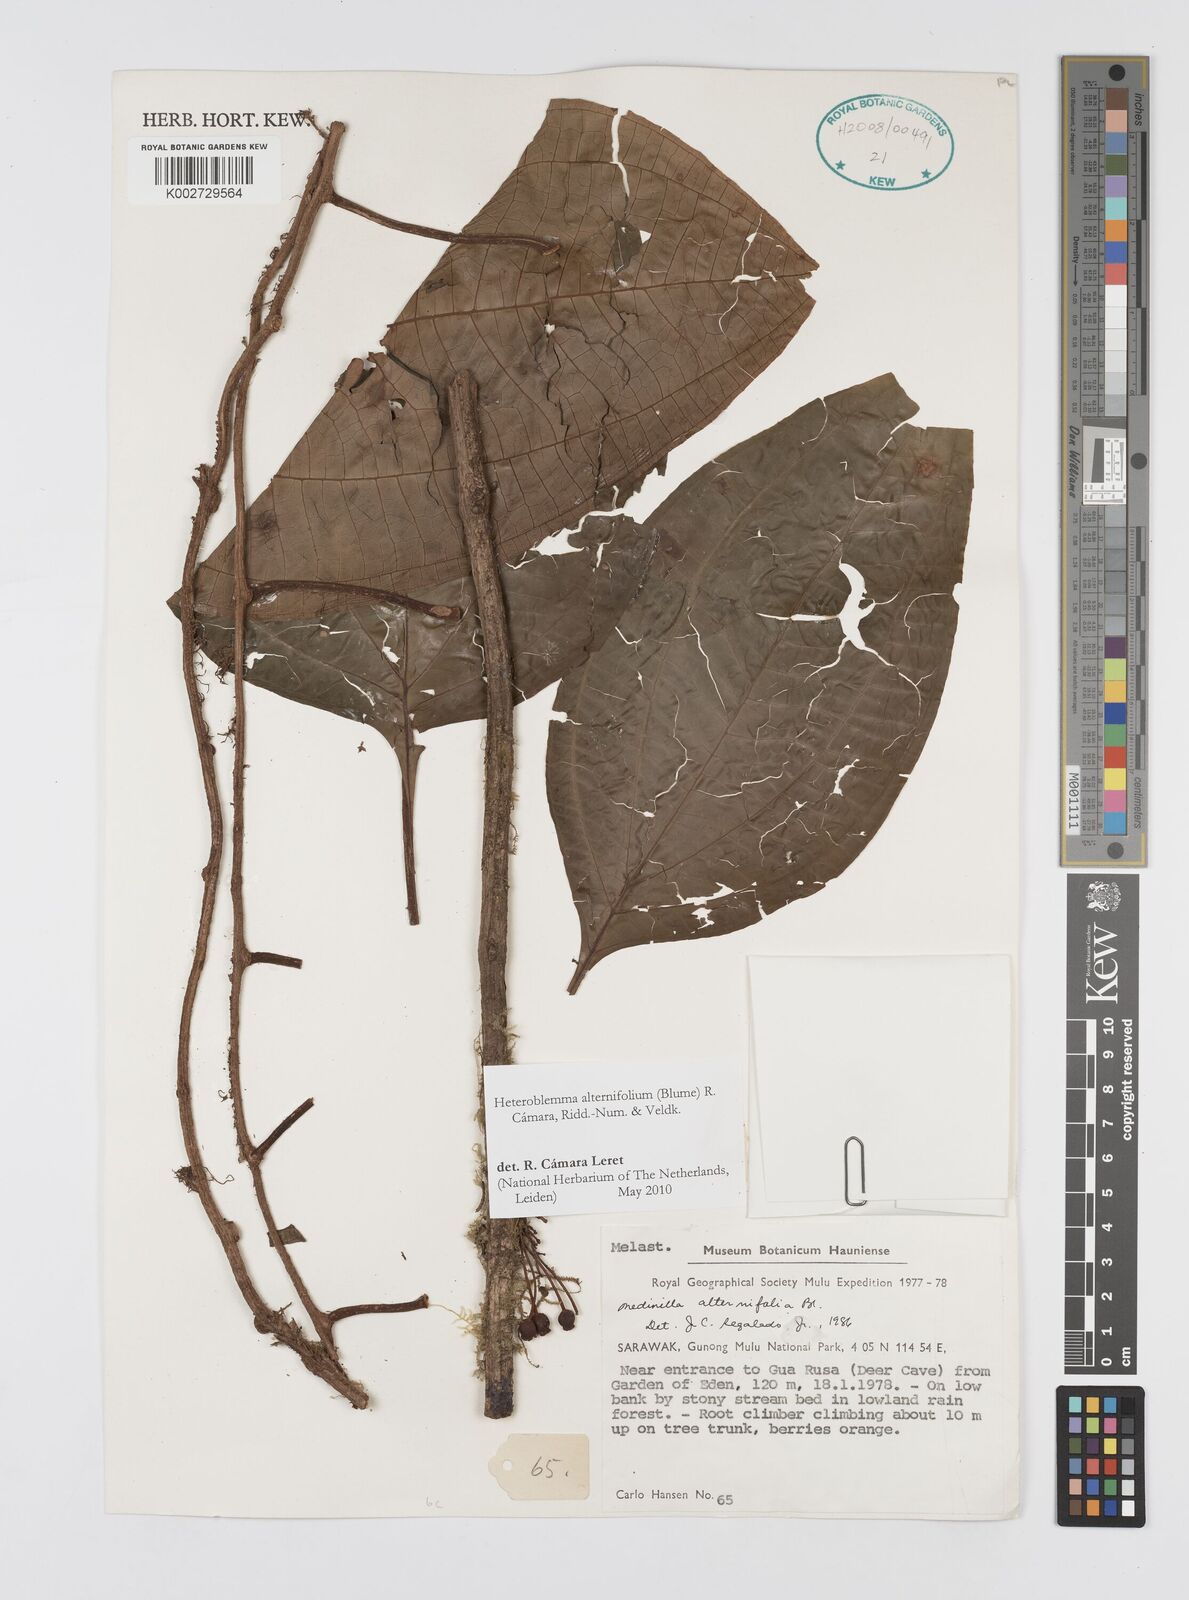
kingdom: Plantae
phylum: Tracheophyta
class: Magnoliopsida
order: Myrtales
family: Melastomataceae
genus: Heteroblemma
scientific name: Heteroblemma alternifolium
